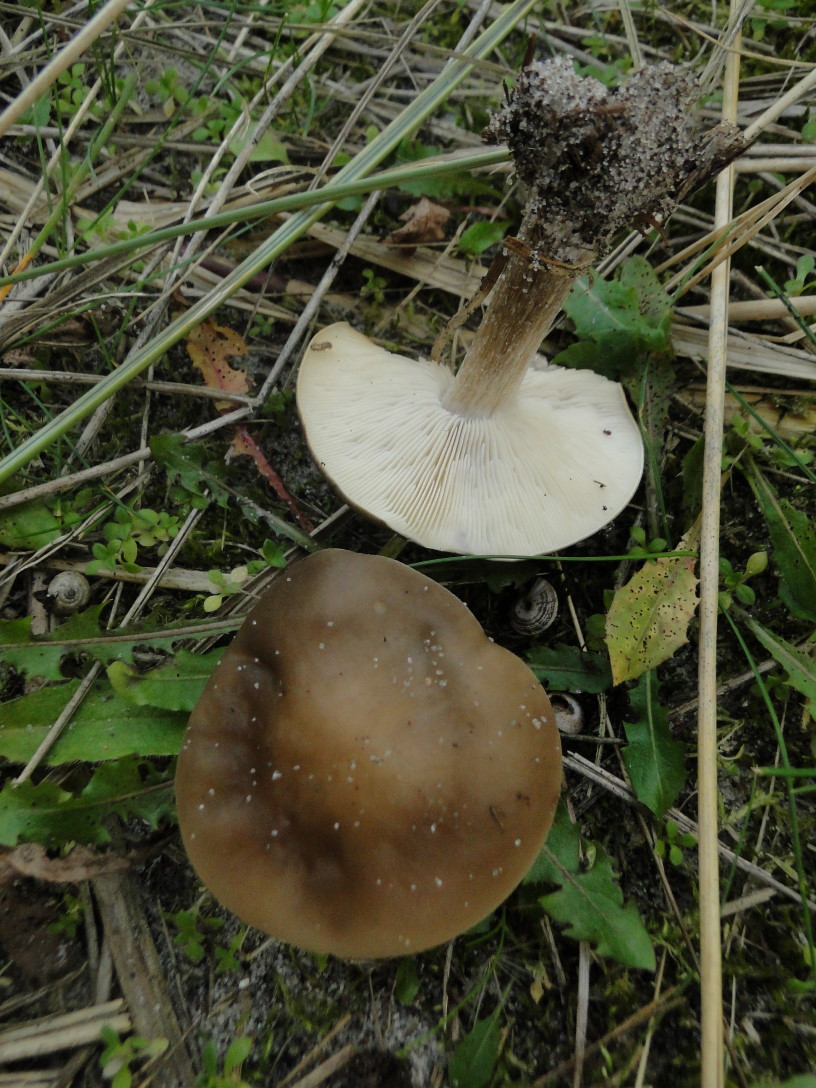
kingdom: Fungi
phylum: Basidiomycota
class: Agaricomycetes
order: Agaricales
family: Tricholomataceae
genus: Melanoleuca
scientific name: Melanoleuca polioleuca
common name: hvidbladet munkehat
